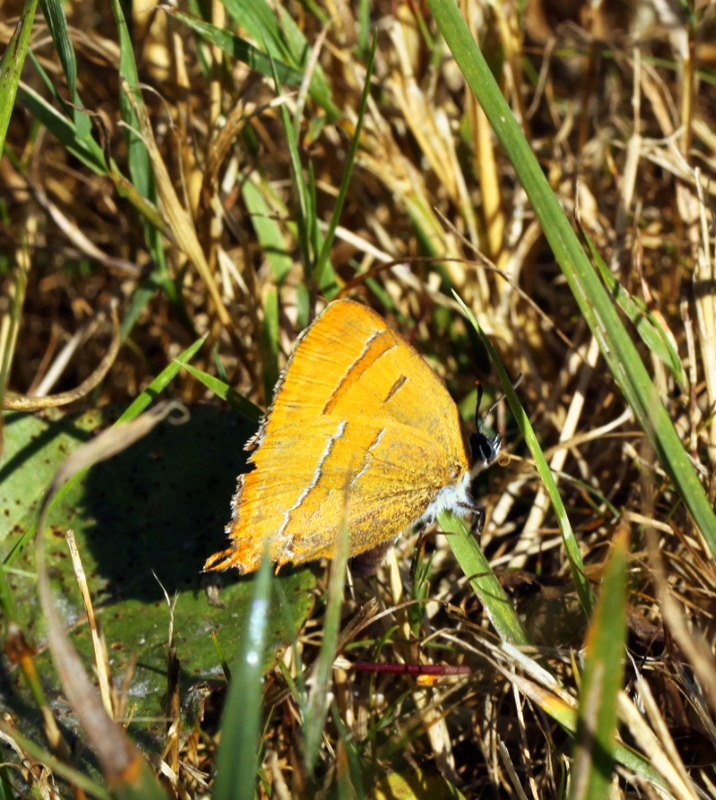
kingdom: Animalia
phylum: Arthropoda
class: Insecta
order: Lepidoptera
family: Lycaenidae
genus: Thecla
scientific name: Thecla betulae
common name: Guldhale
